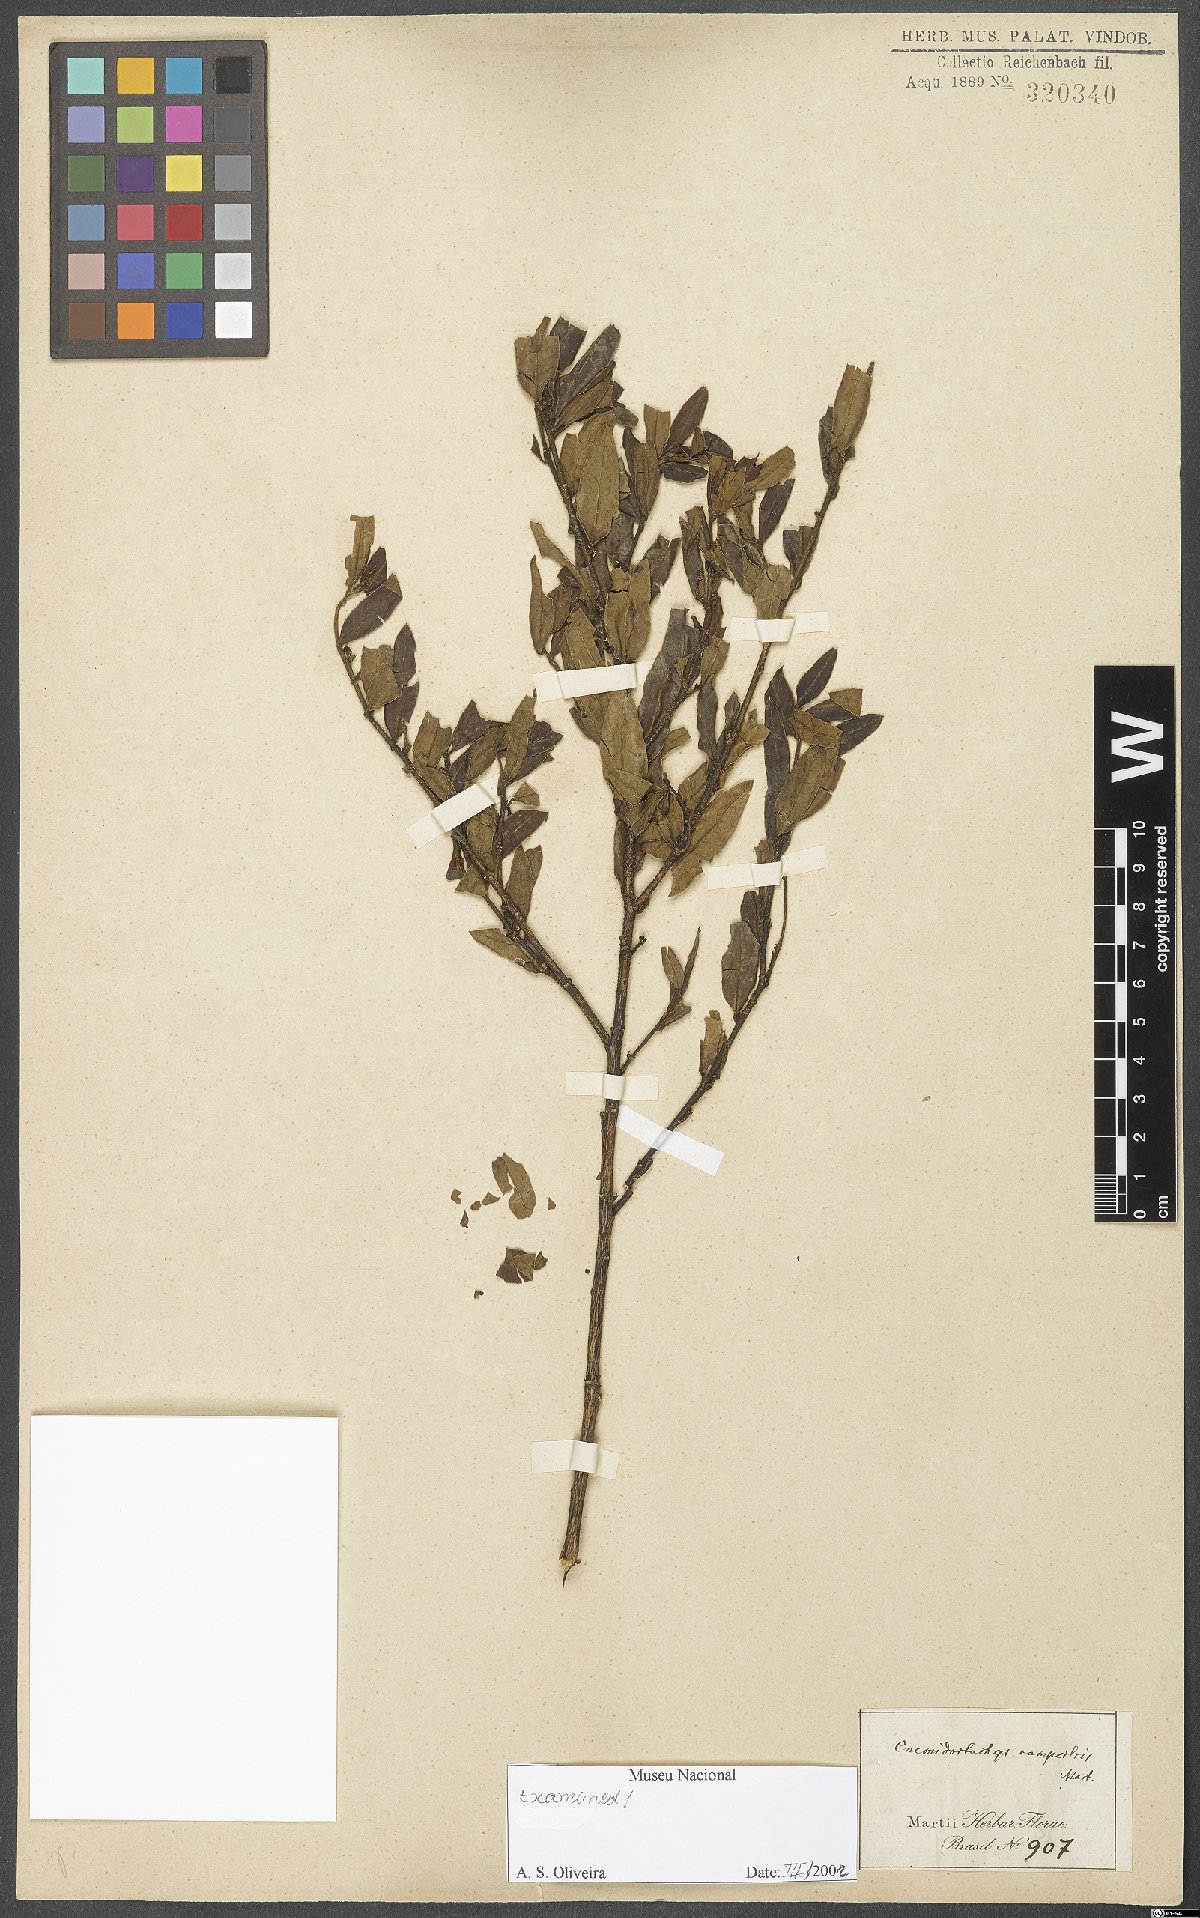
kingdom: Plantae
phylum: Tracheophyta
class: Magnoliopsida
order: Malpighiales
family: Euphorbiaceae
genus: Microstachys
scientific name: Microstachys corniculata
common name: Hato tejas
